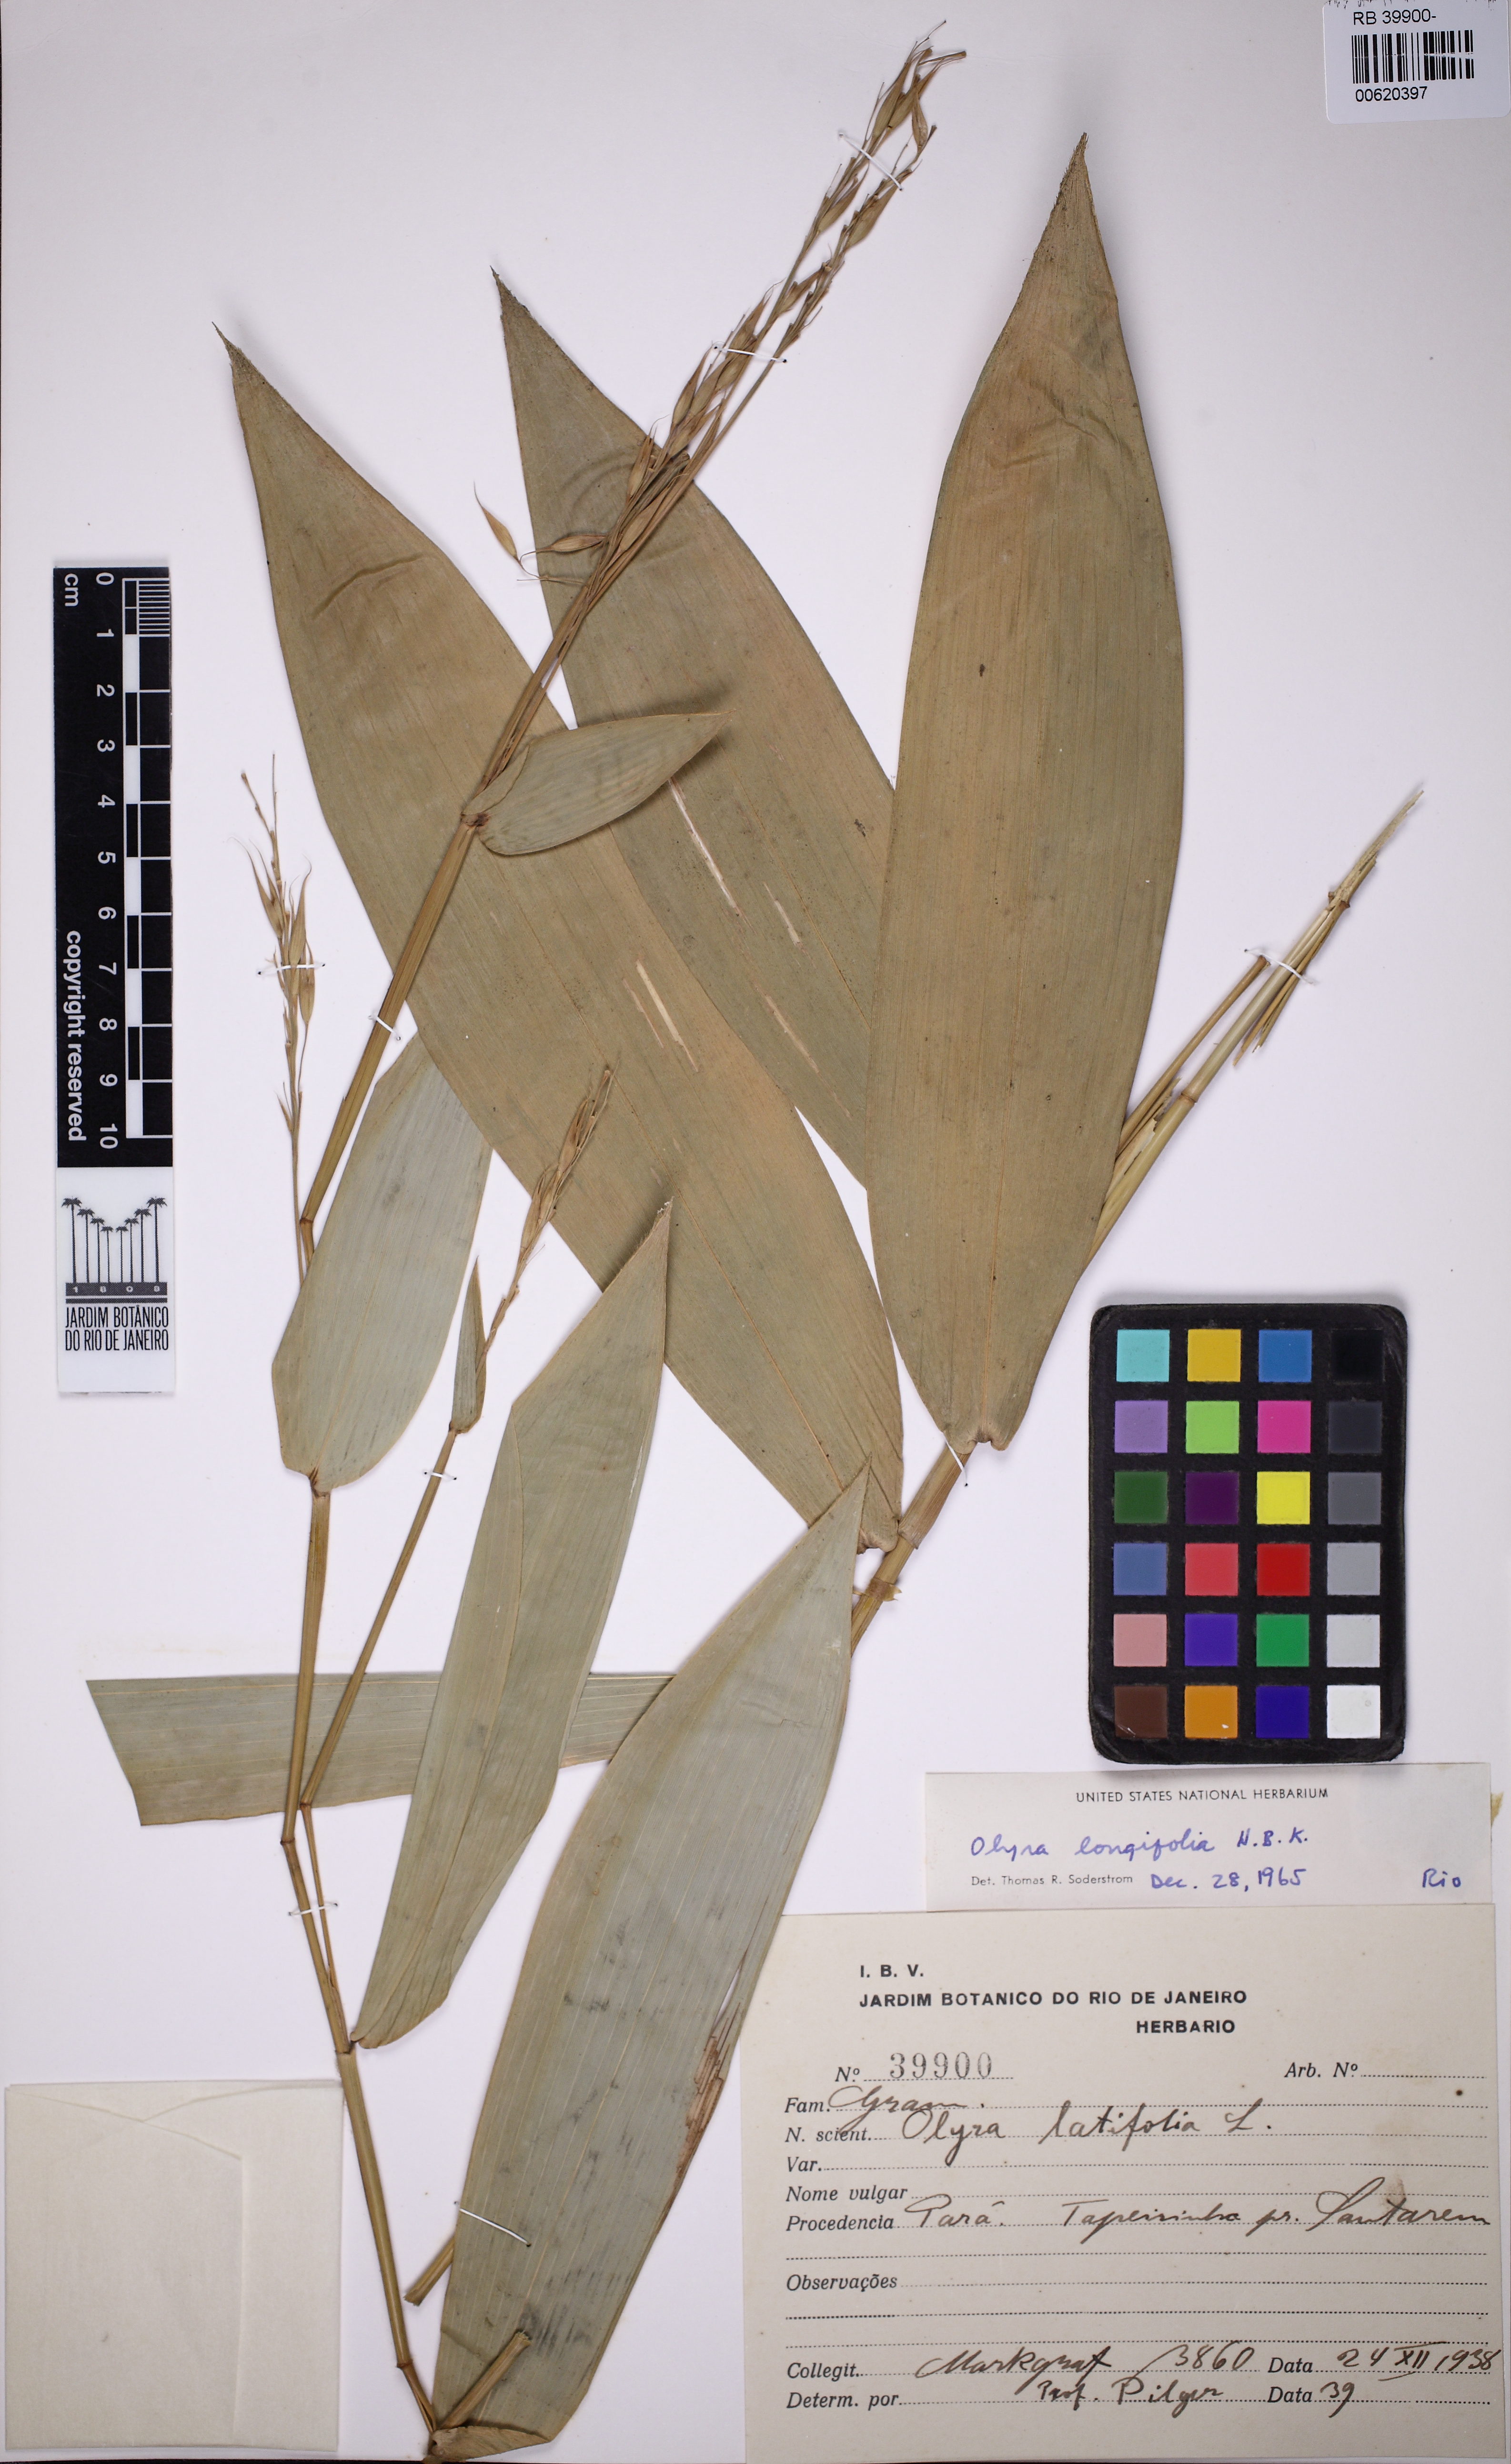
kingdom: Plantae
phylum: Tracheophyta
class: Liliopsida
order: Poales
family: Poaceae
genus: Olyra
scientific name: Olyra longifolia
